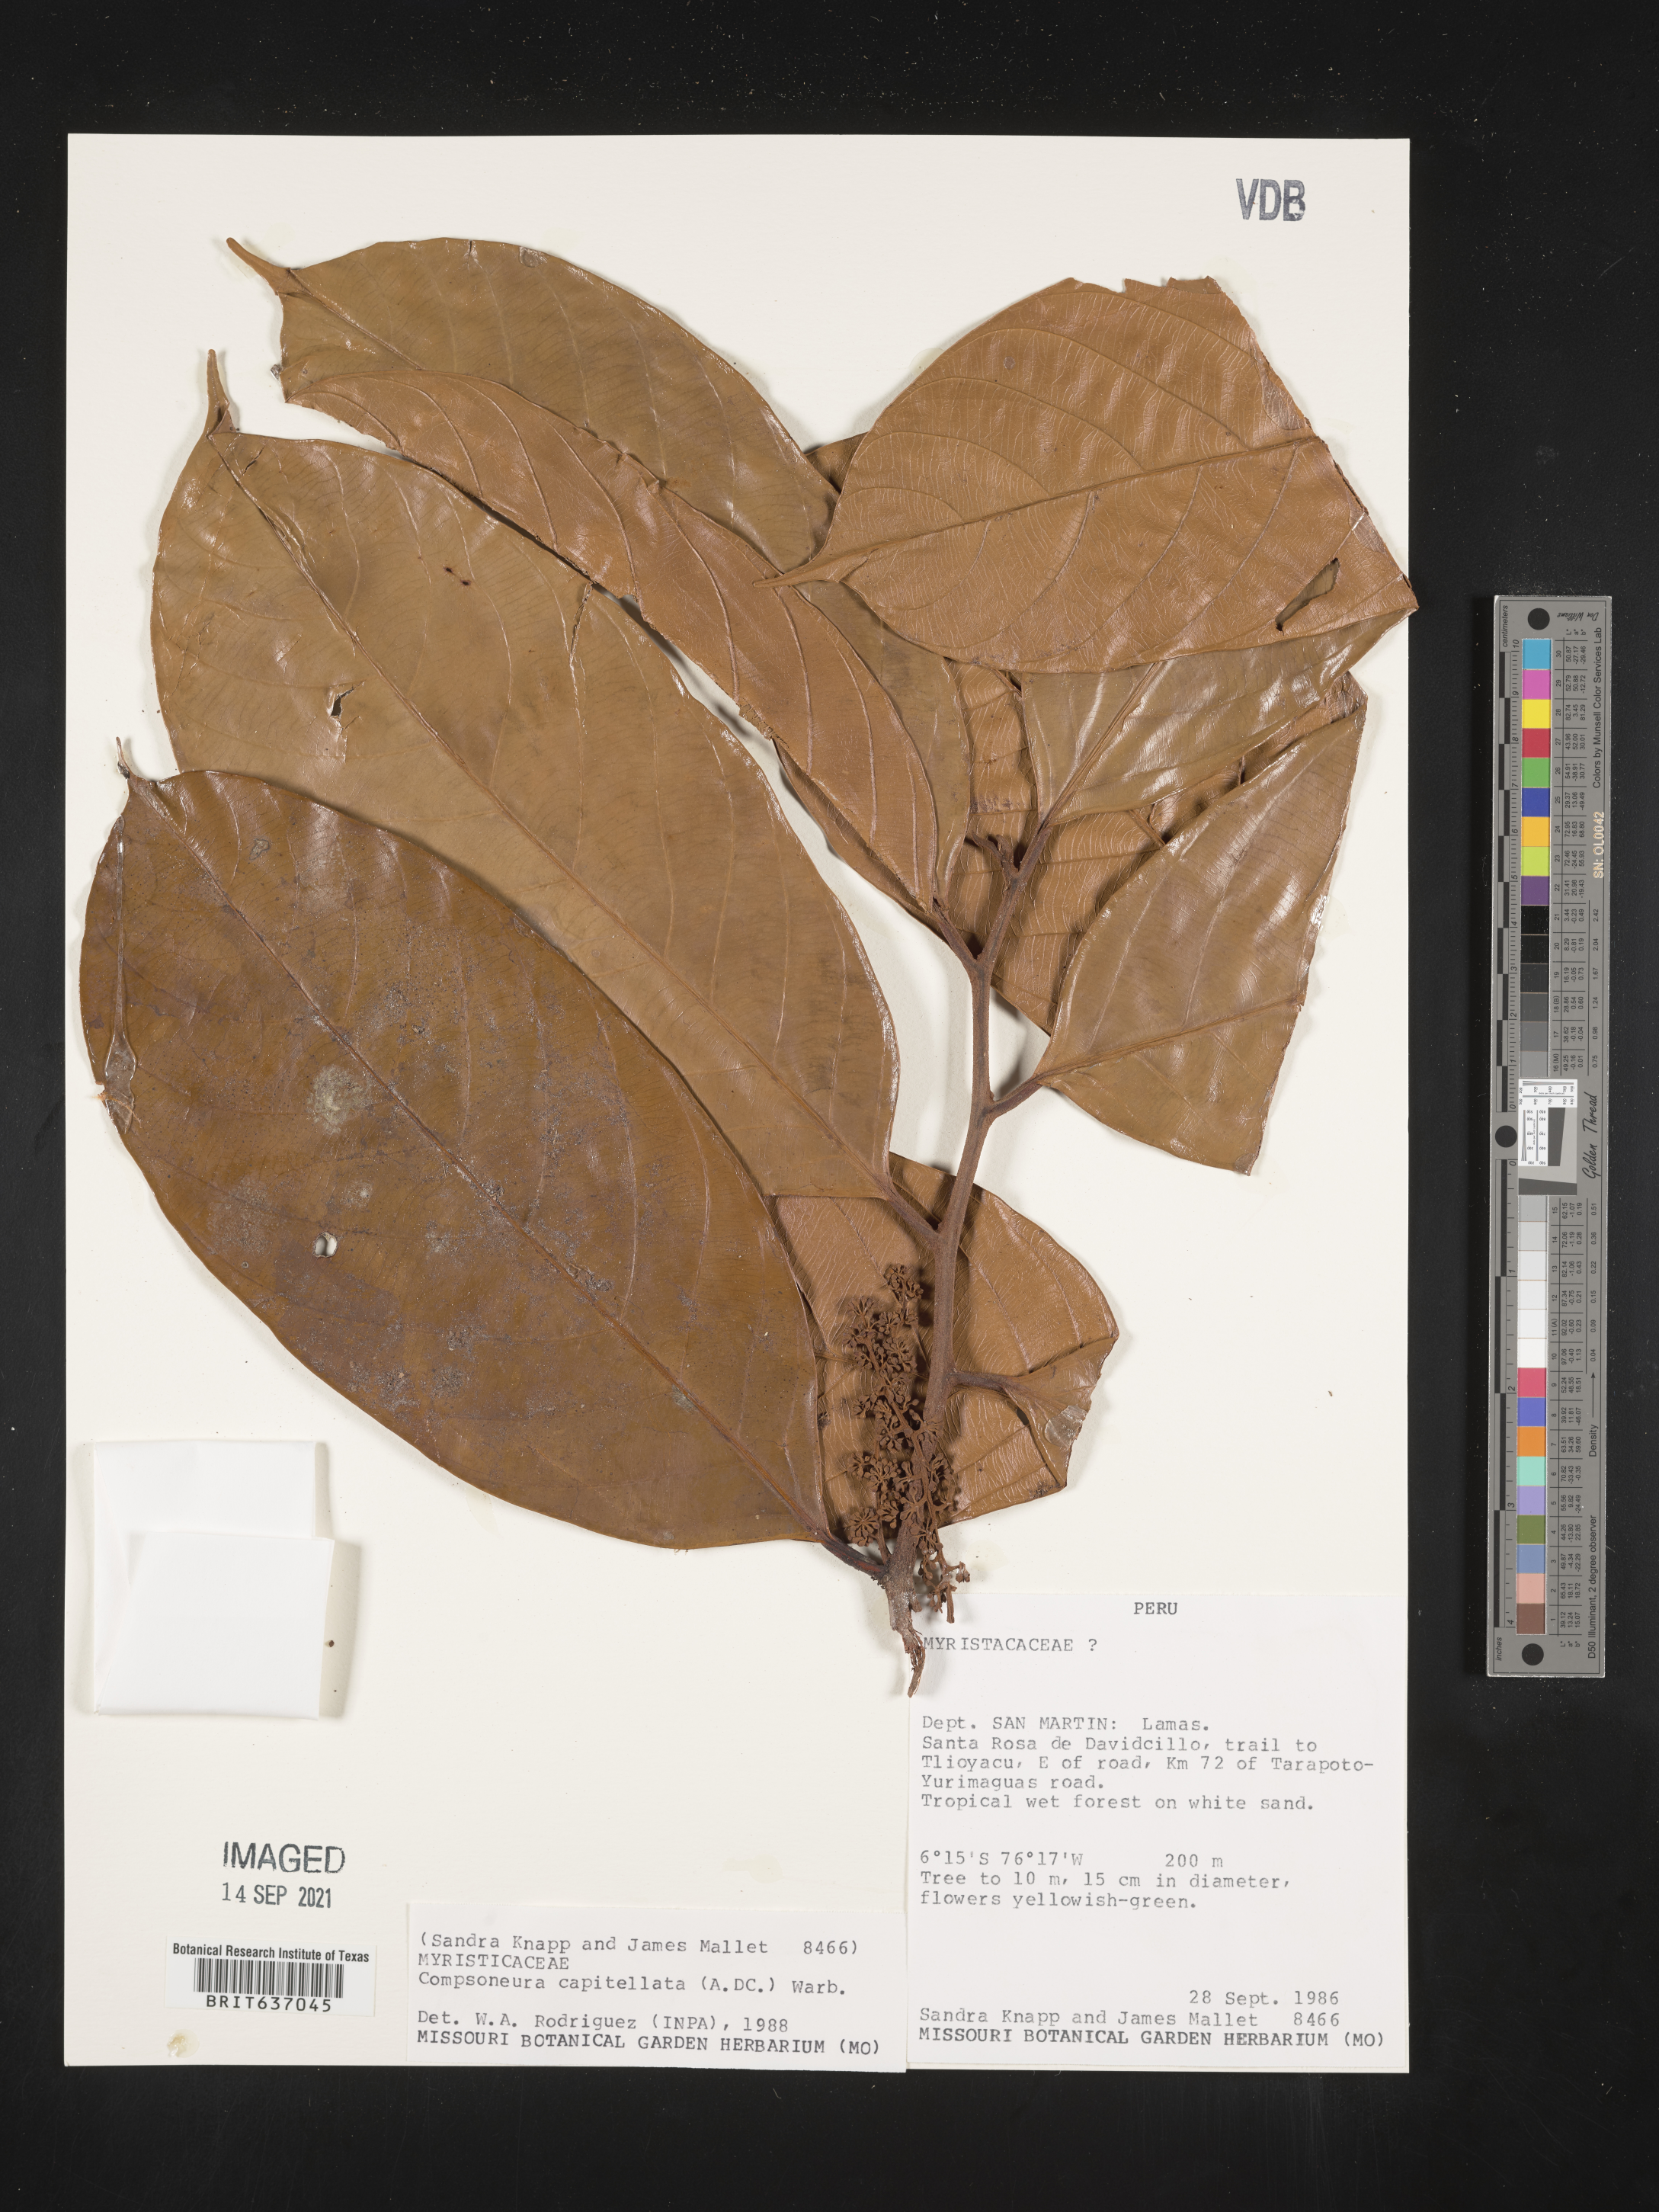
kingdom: Plantae
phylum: Tracheophyta
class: Magnoliopsida
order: Magnoliales
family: Myristicaceae
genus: Compsoneura
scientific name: Compsoneura
